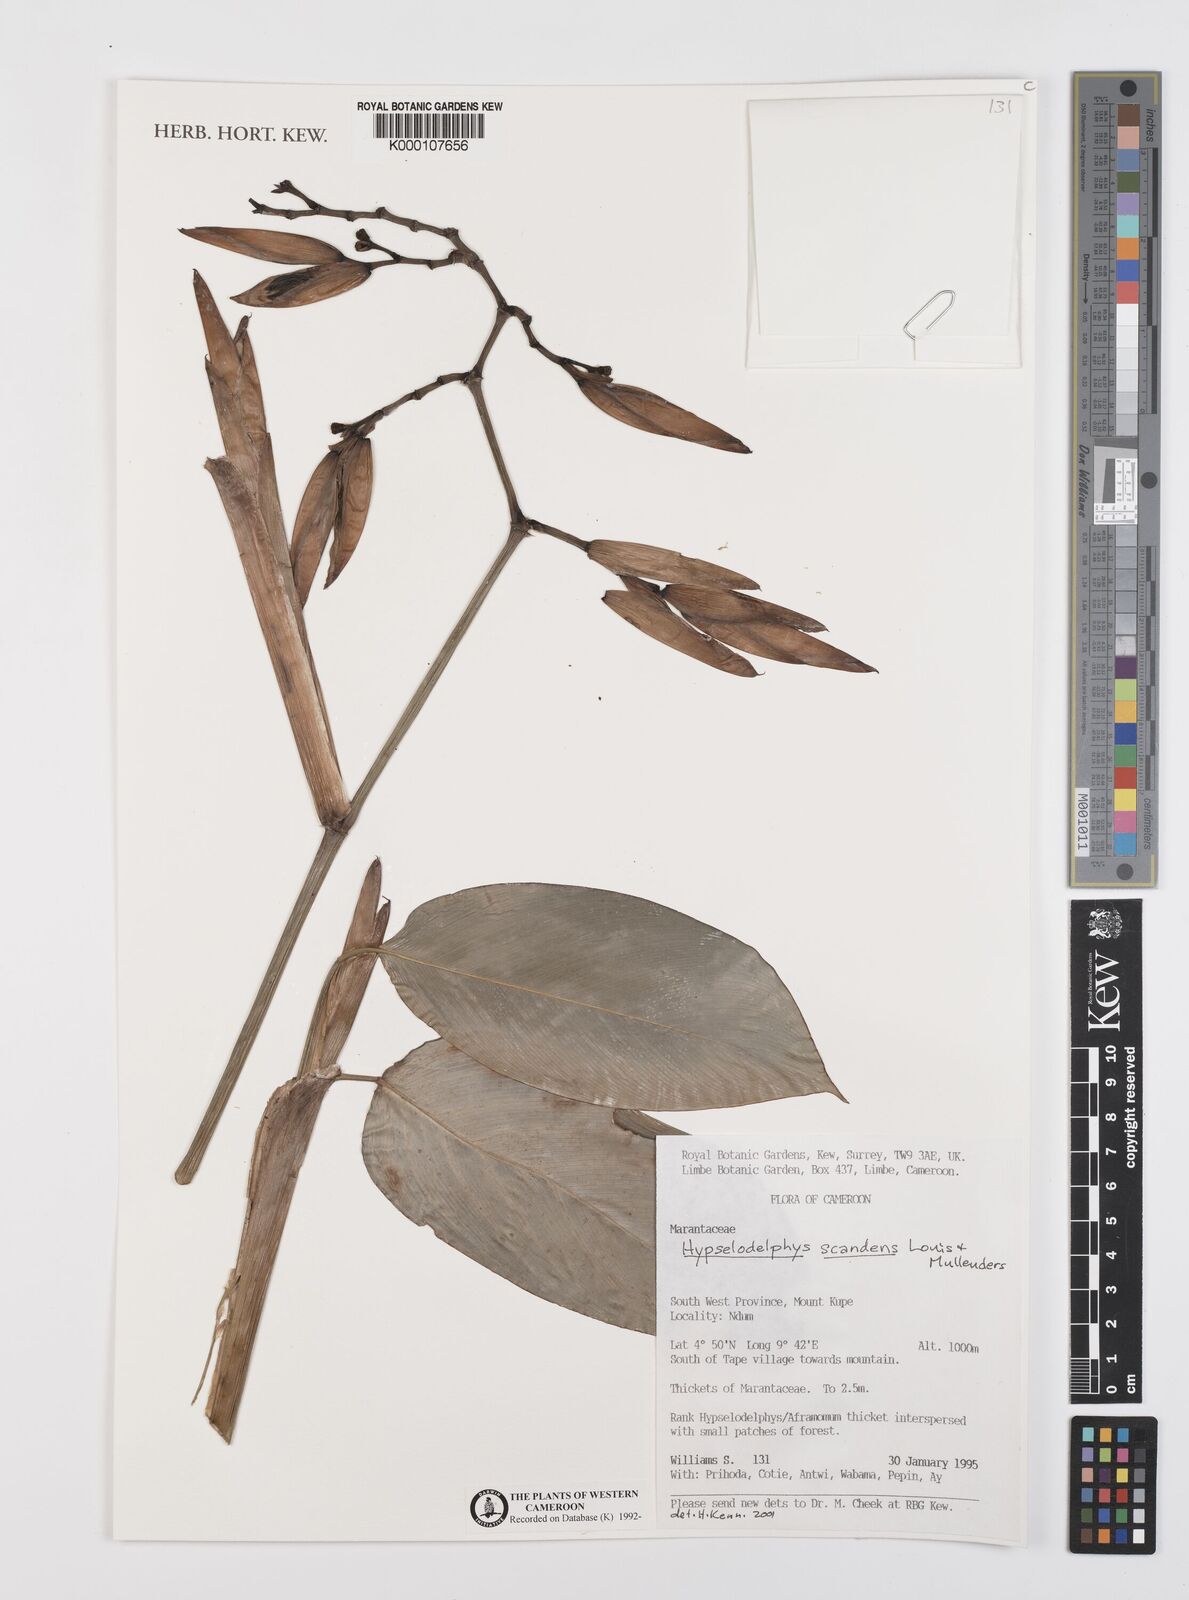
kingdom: Plantae
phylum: Tracheophyta
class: Liliopsida
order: Zingiberales
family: Marantaceae
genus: Hypselodelphys
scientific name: Hypselodelphys scandens
